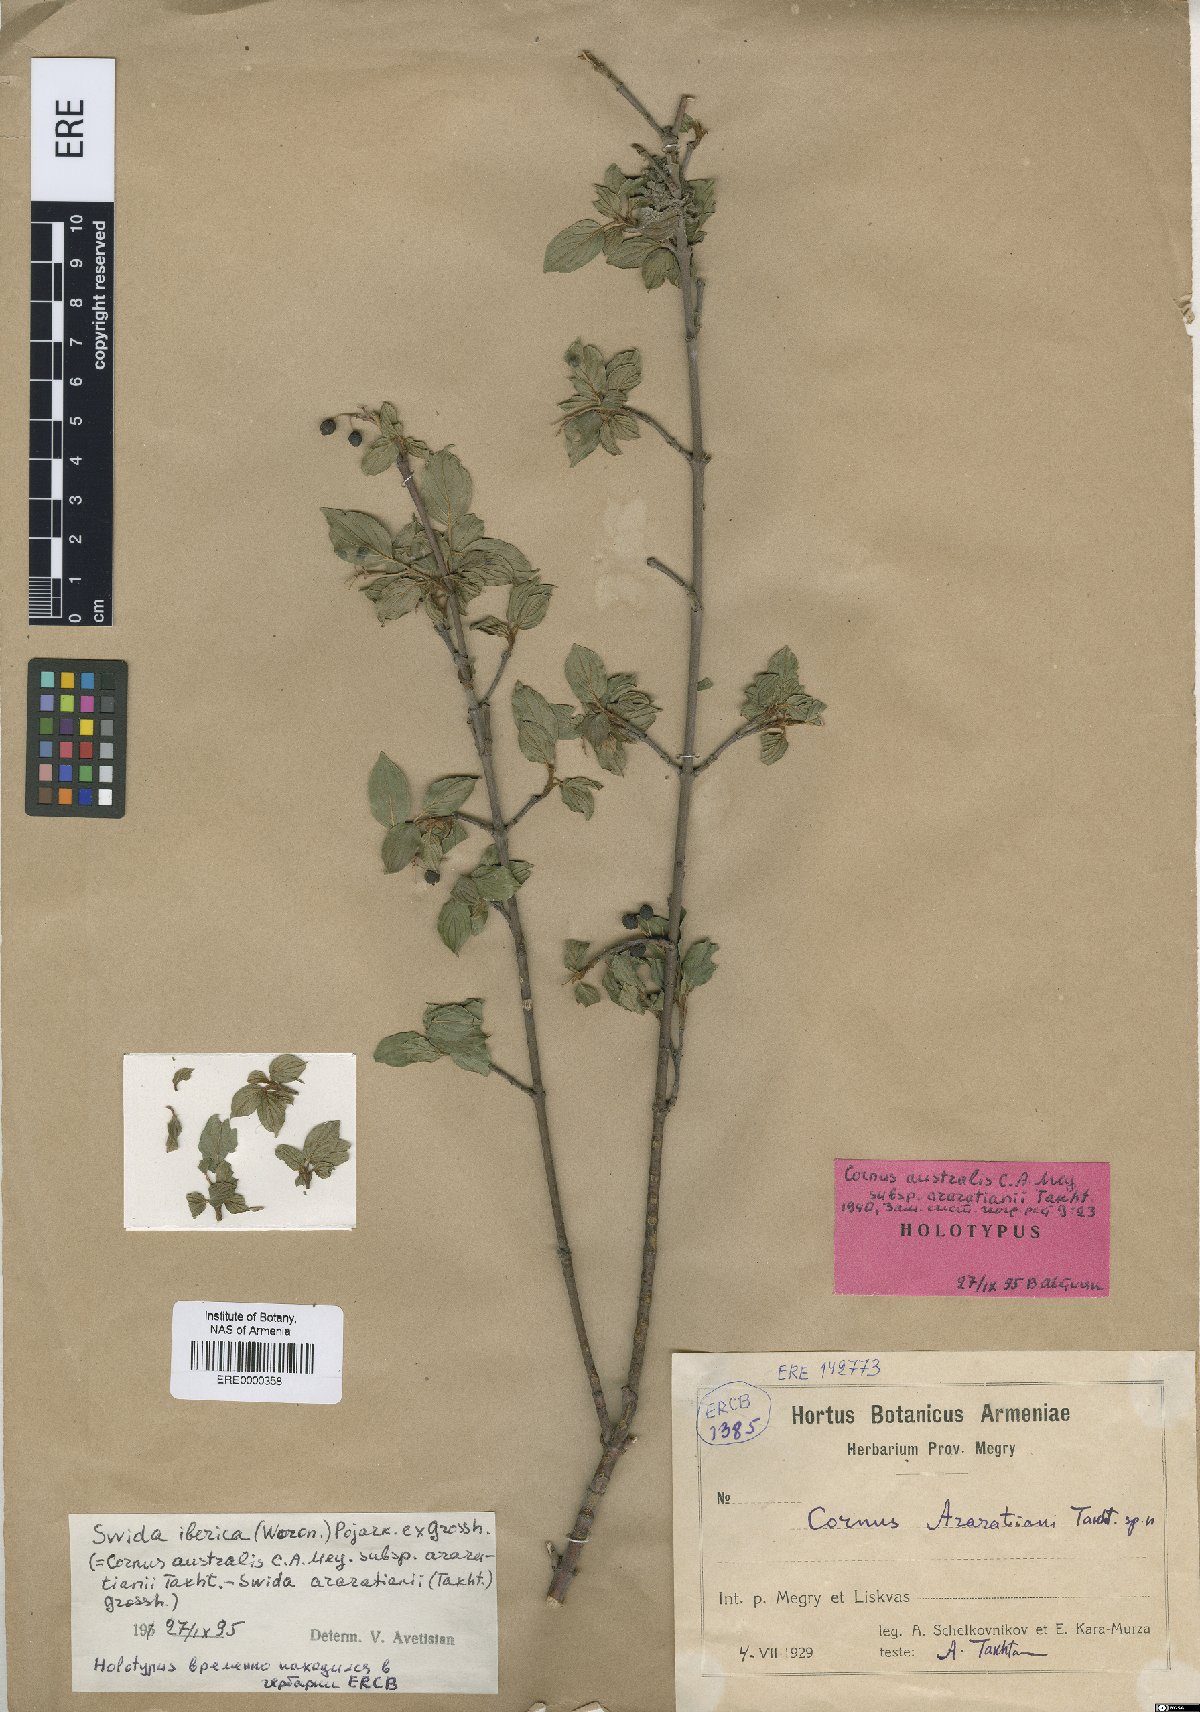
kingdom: Plantae
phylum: Tracheophyta
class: Magnoliopsida
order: Cornales
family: Cornaceae
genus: Cornus
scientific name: Cornus sanguinea
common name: Dogwood
